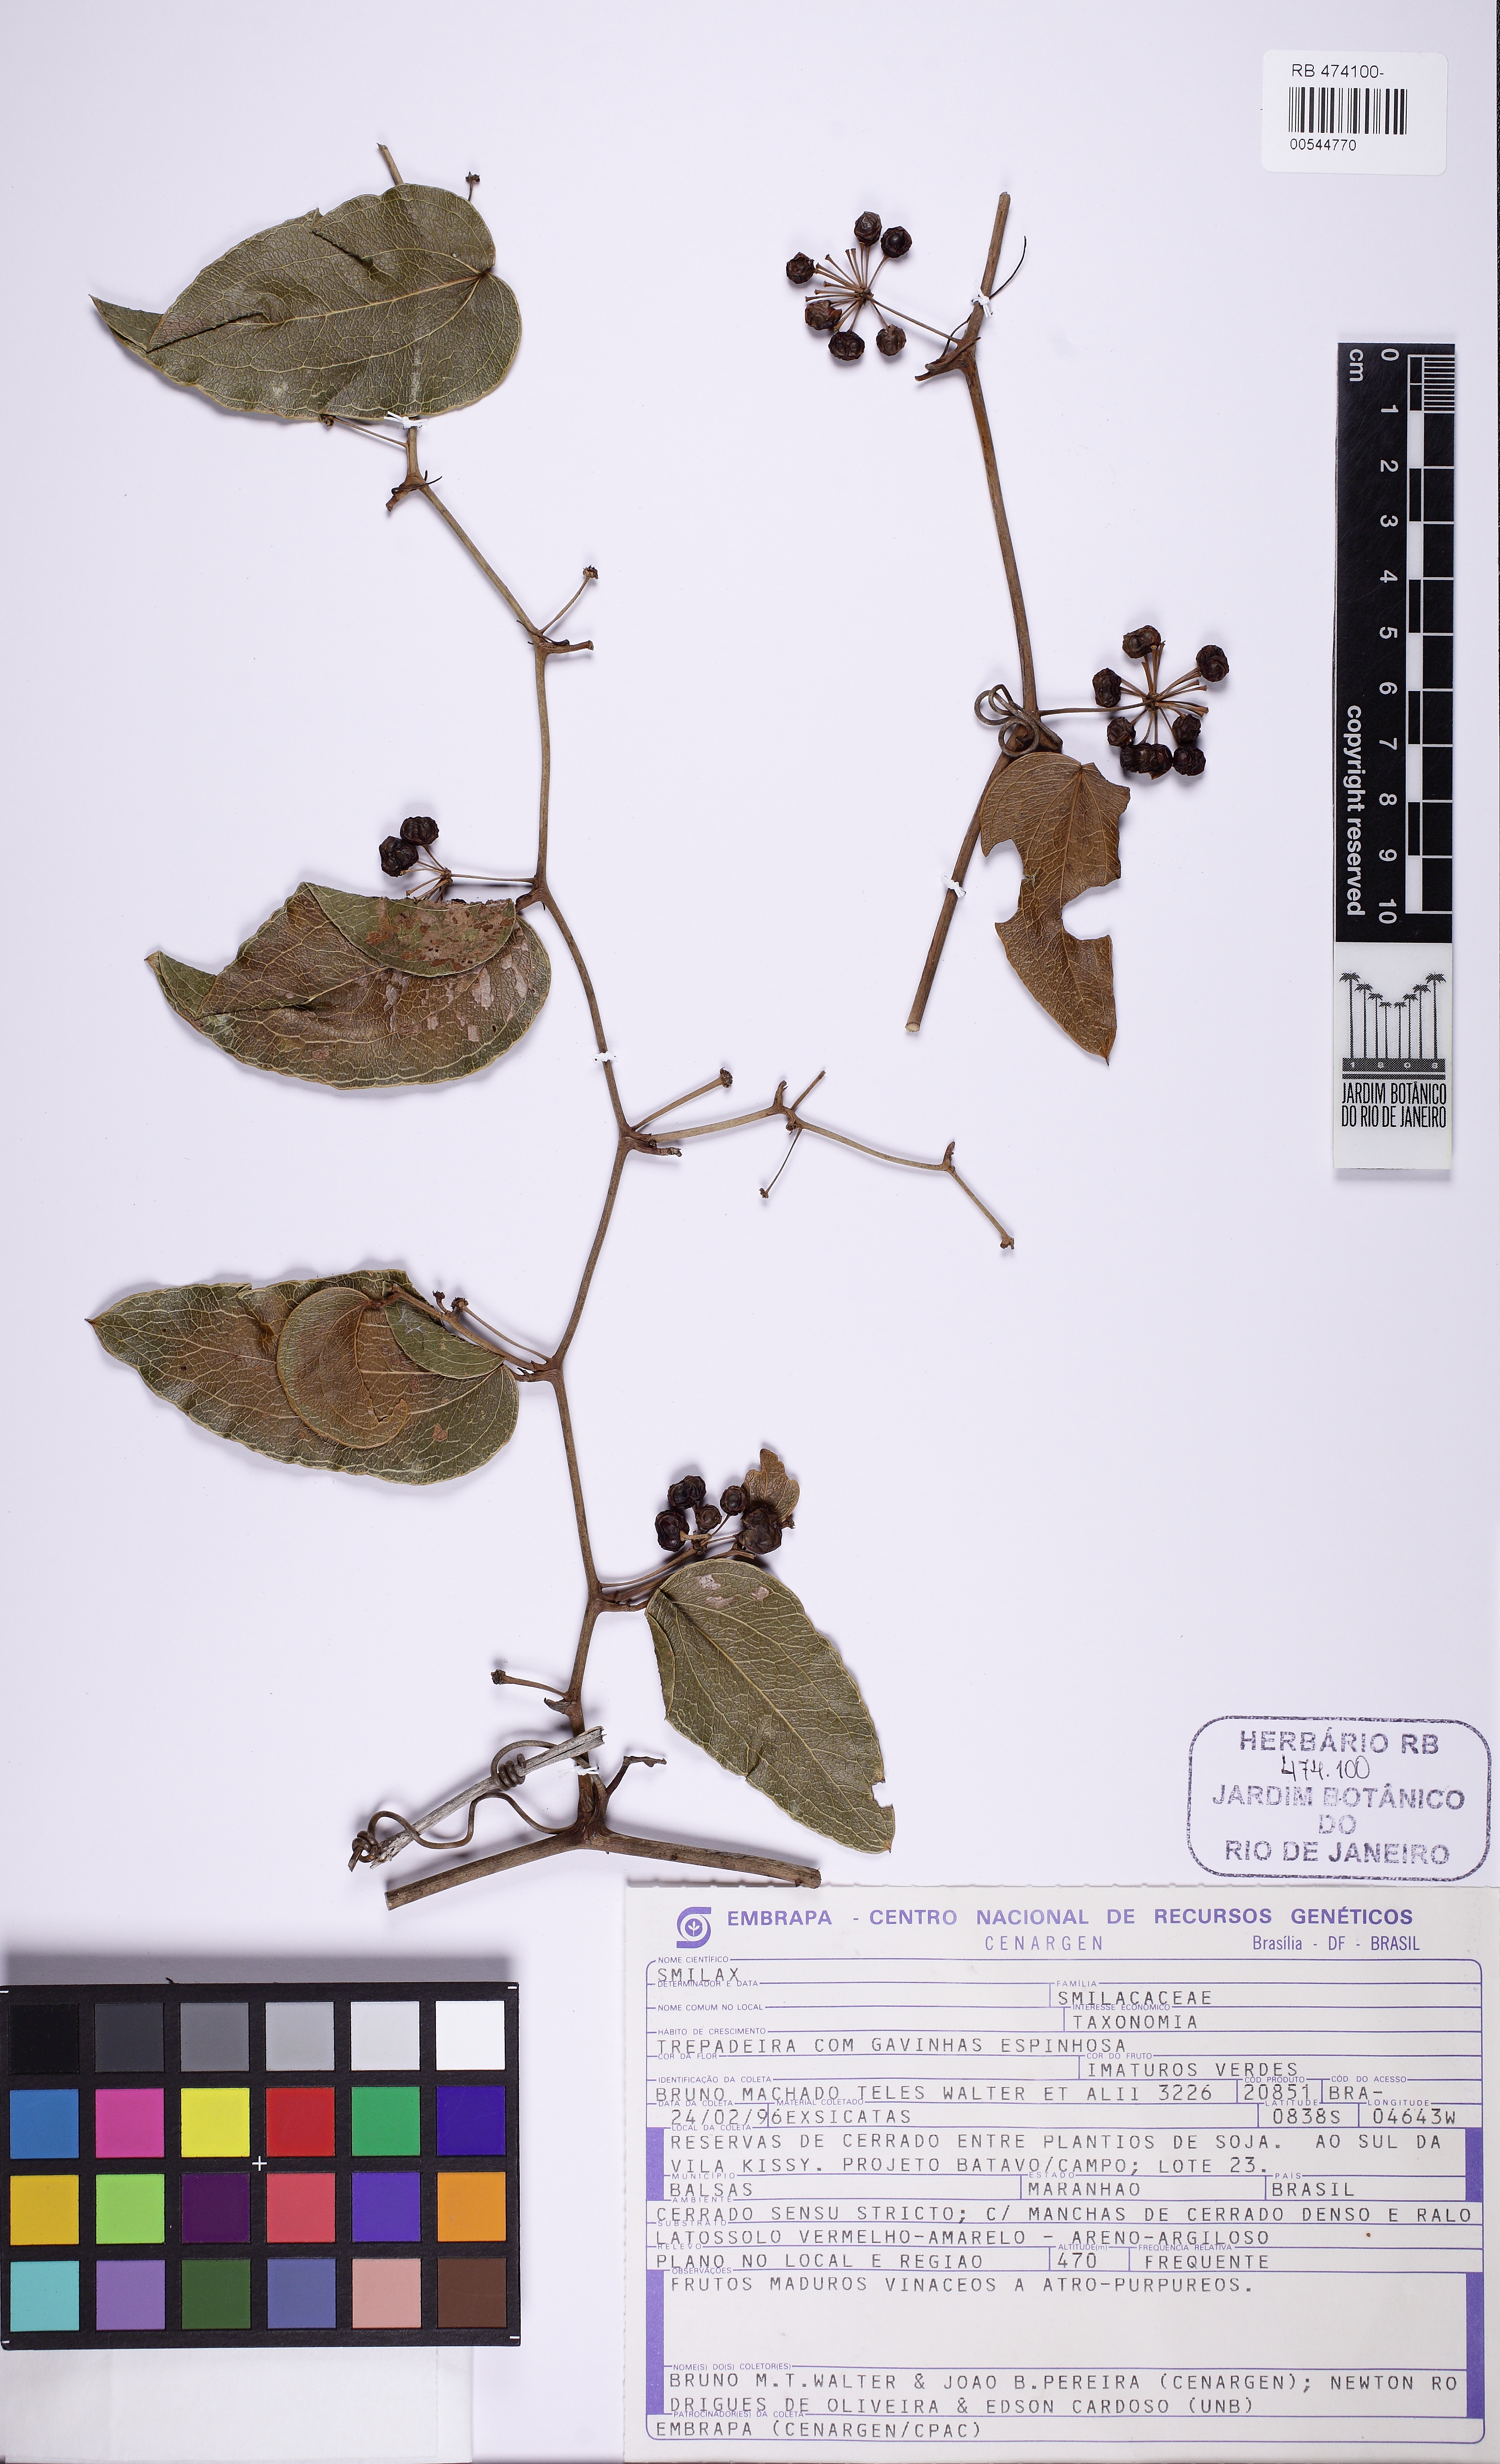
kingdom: Plantae
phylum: Tracheophyta
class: Liliopsida
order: Liliales
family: Smilacaceae
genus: Smilax
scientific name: Smilax
